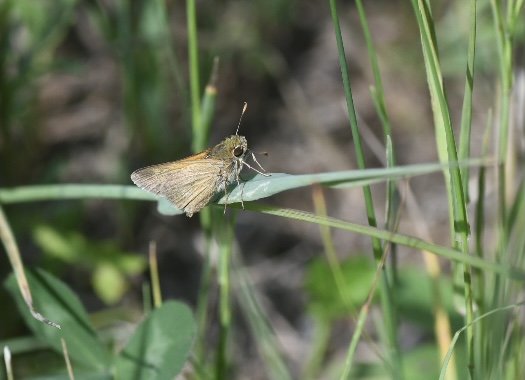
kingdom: Animalia
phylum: Arthropoda
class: Insecta
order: Lepidoptera
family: Hesperiidae
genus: Polites
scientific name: Polites
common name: Crossline Skipper
